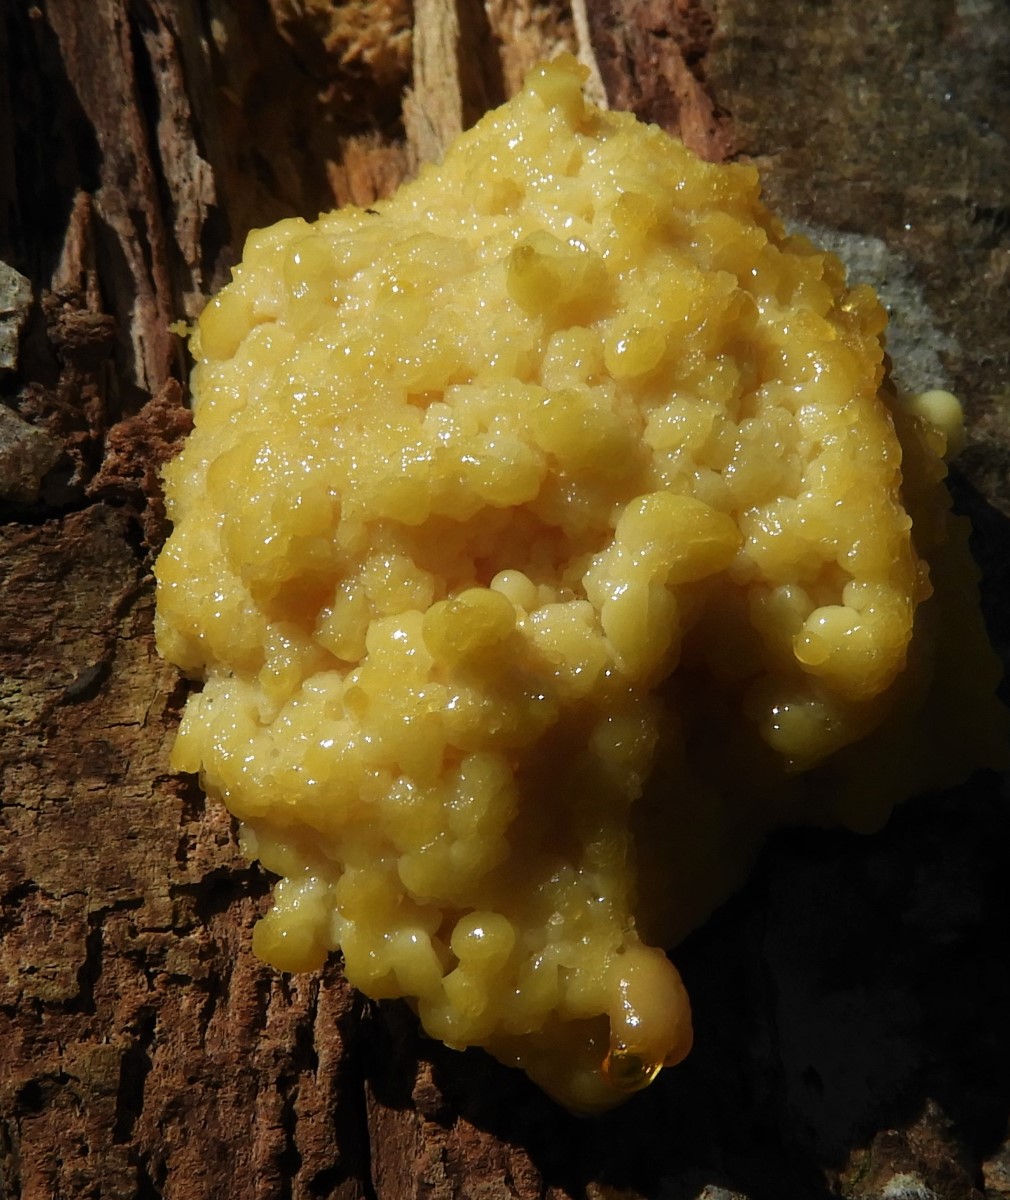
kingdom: Protozoa
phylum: Mycetozoa
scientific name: Mycetozoa
